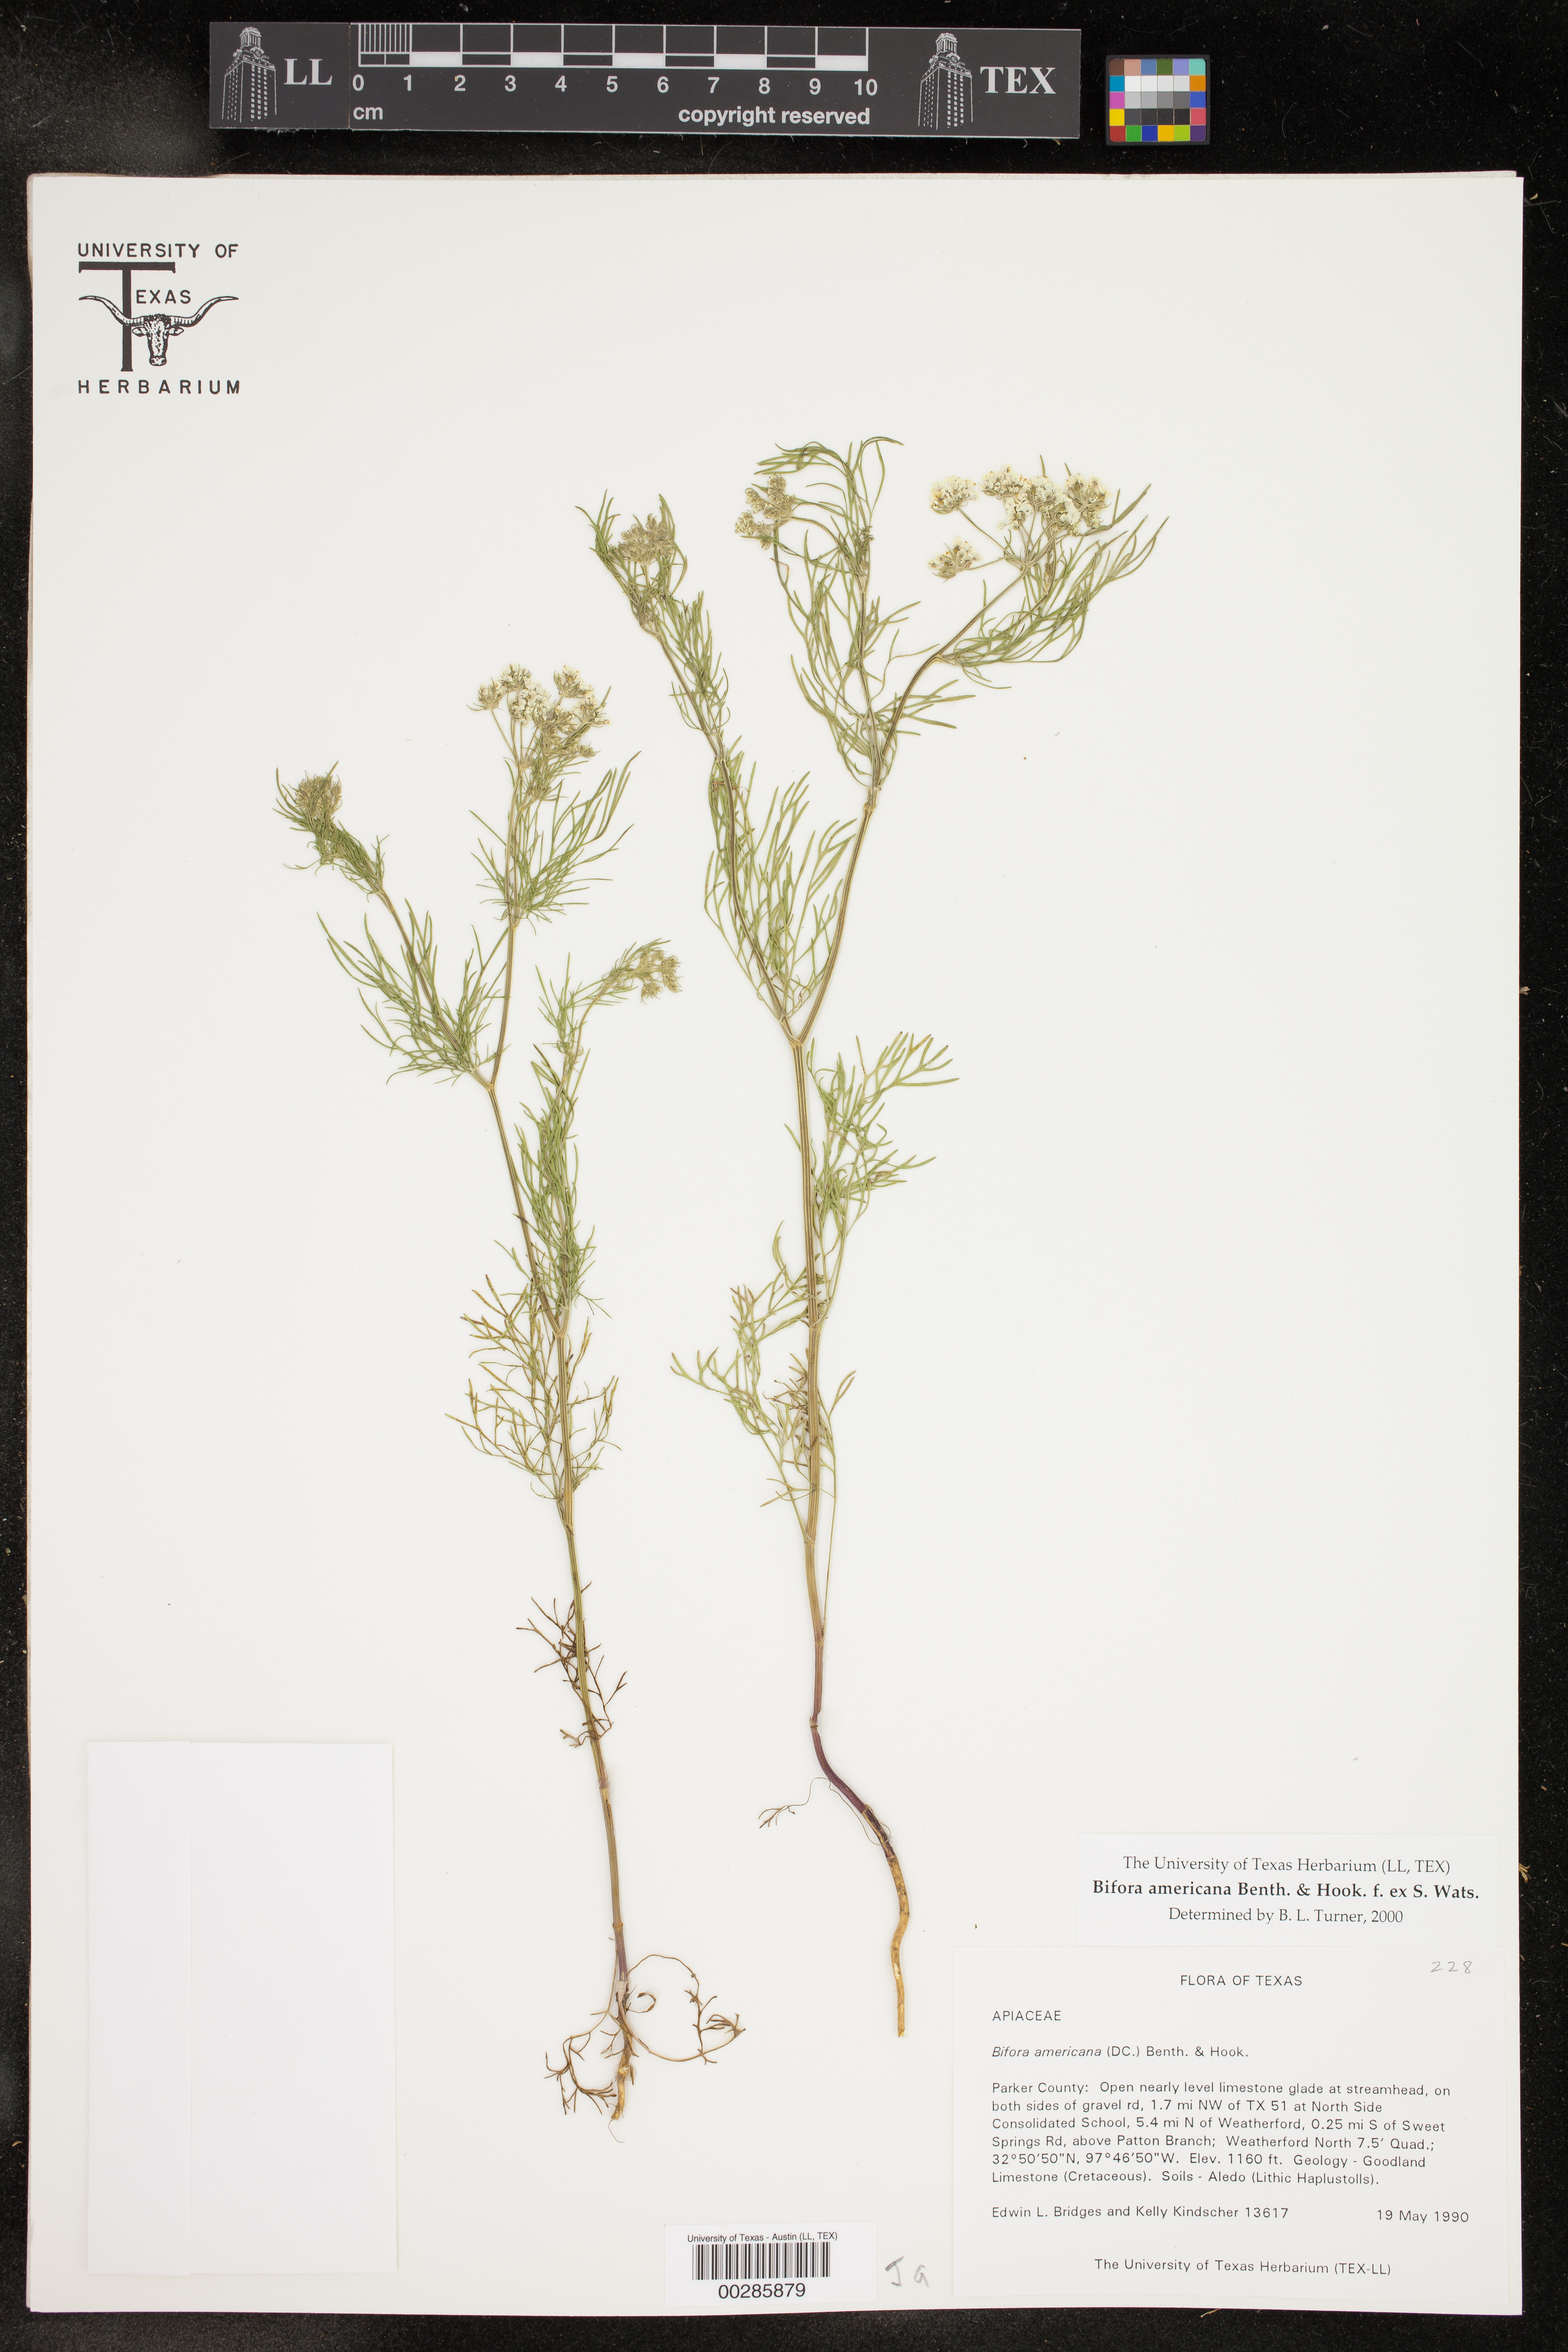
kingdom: Plantae
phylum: Tracheophyta
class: Magnoliopsida
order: Apiales
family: Apiaceae
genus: Atrema
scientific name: Atrema americanum
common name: Prairie-bishop
